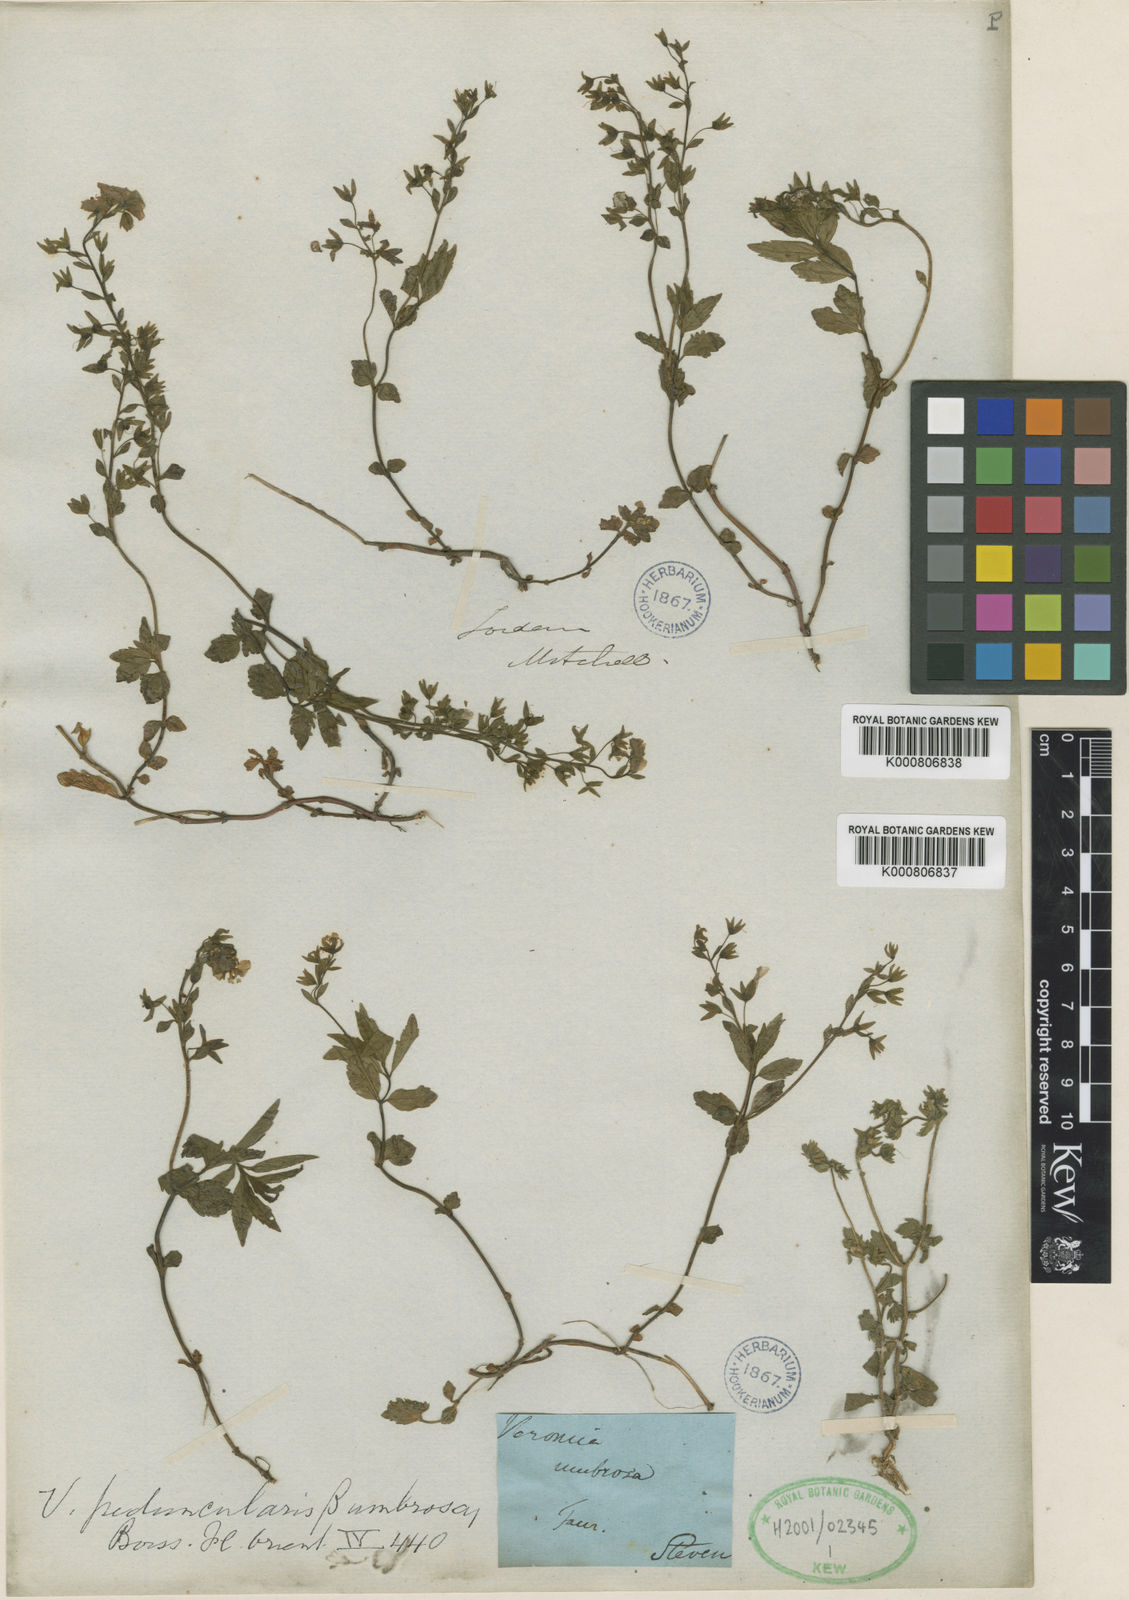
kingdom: Plantae
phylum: Tracheophyta
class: Magnoliopsida
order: Lamiales
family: Plantaginaceae
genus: Veronica
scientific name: Veronica peduncularis
